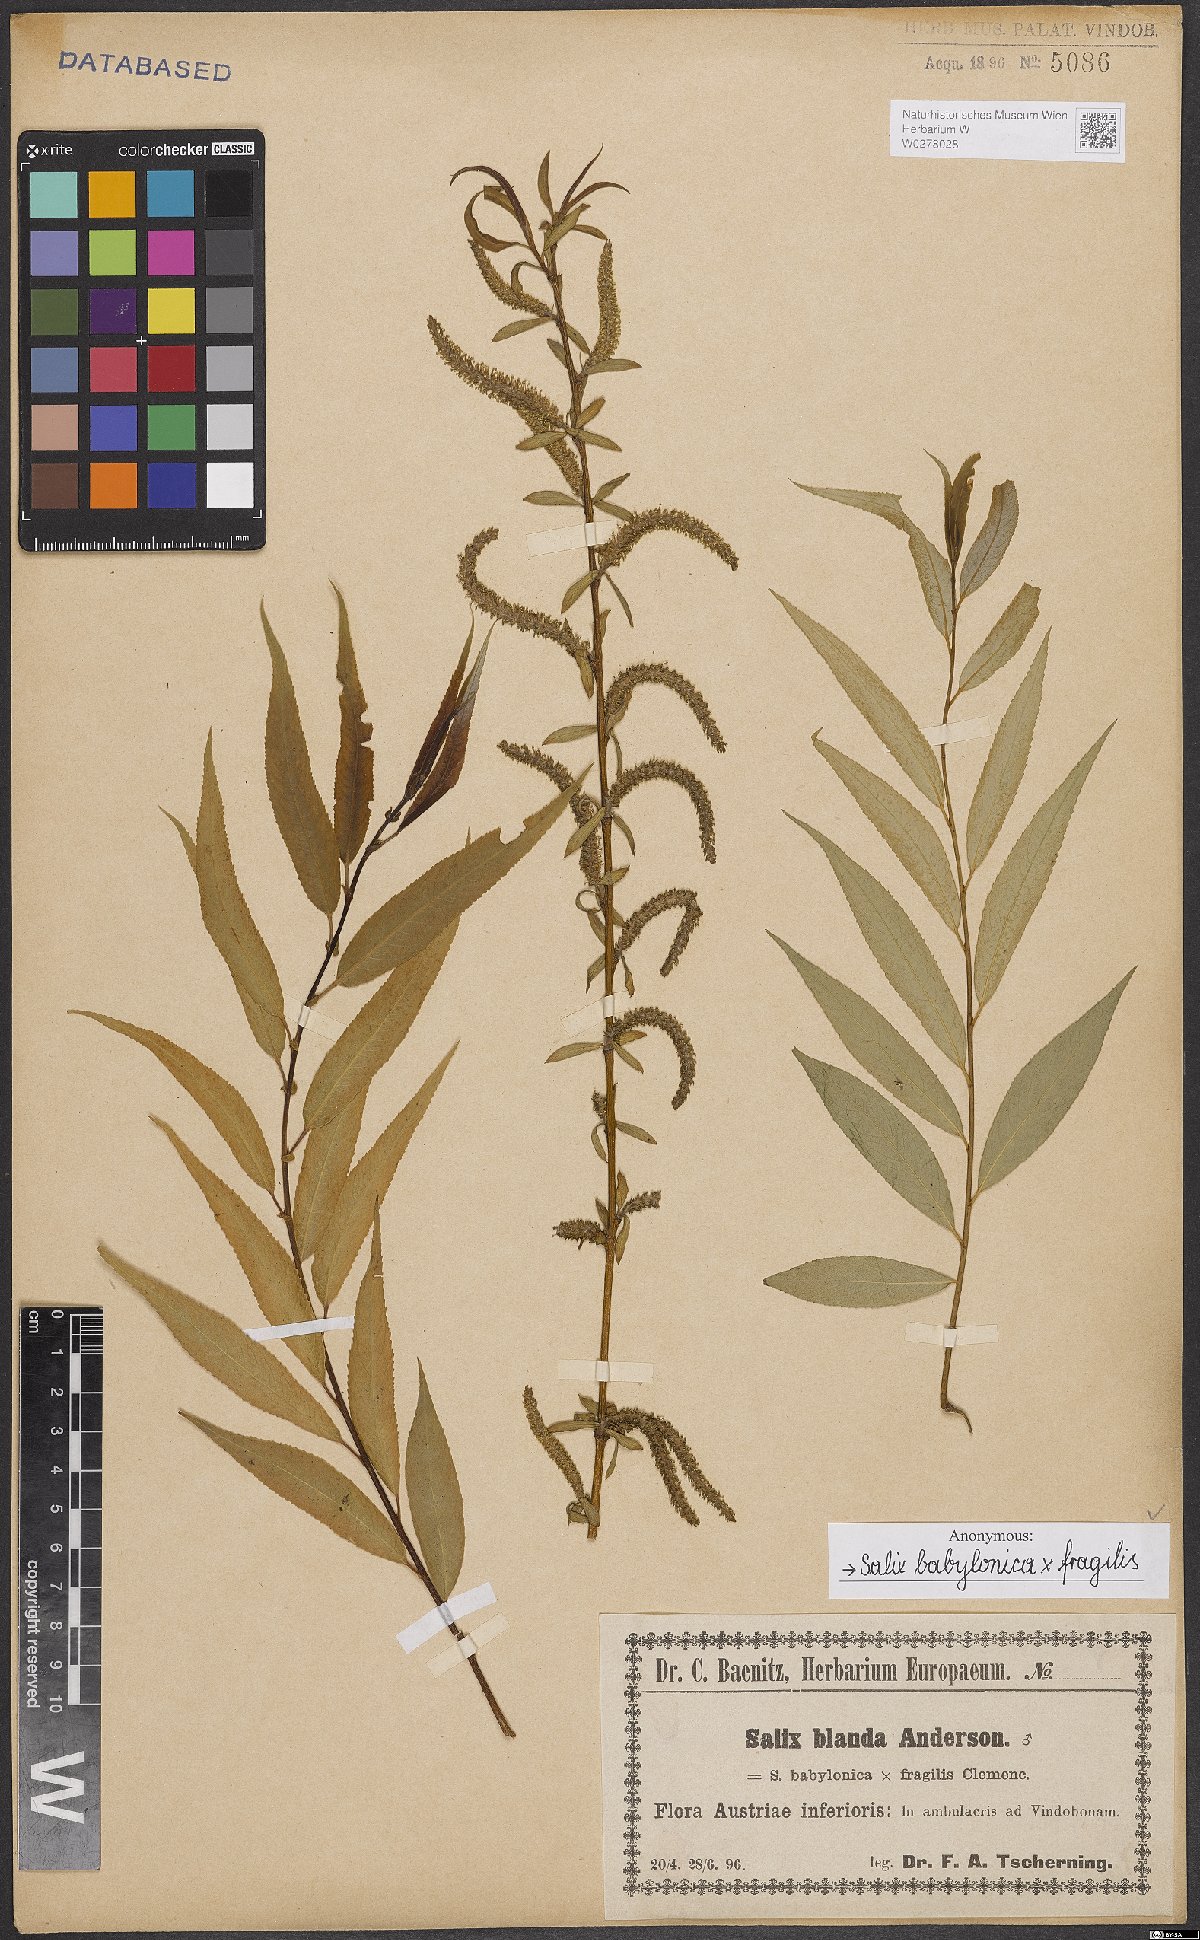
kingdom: Plantae
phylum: Tracheophyta
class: Magnoliopsida
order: Malpighiales
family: Salicaceae
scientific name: Salicaceae
